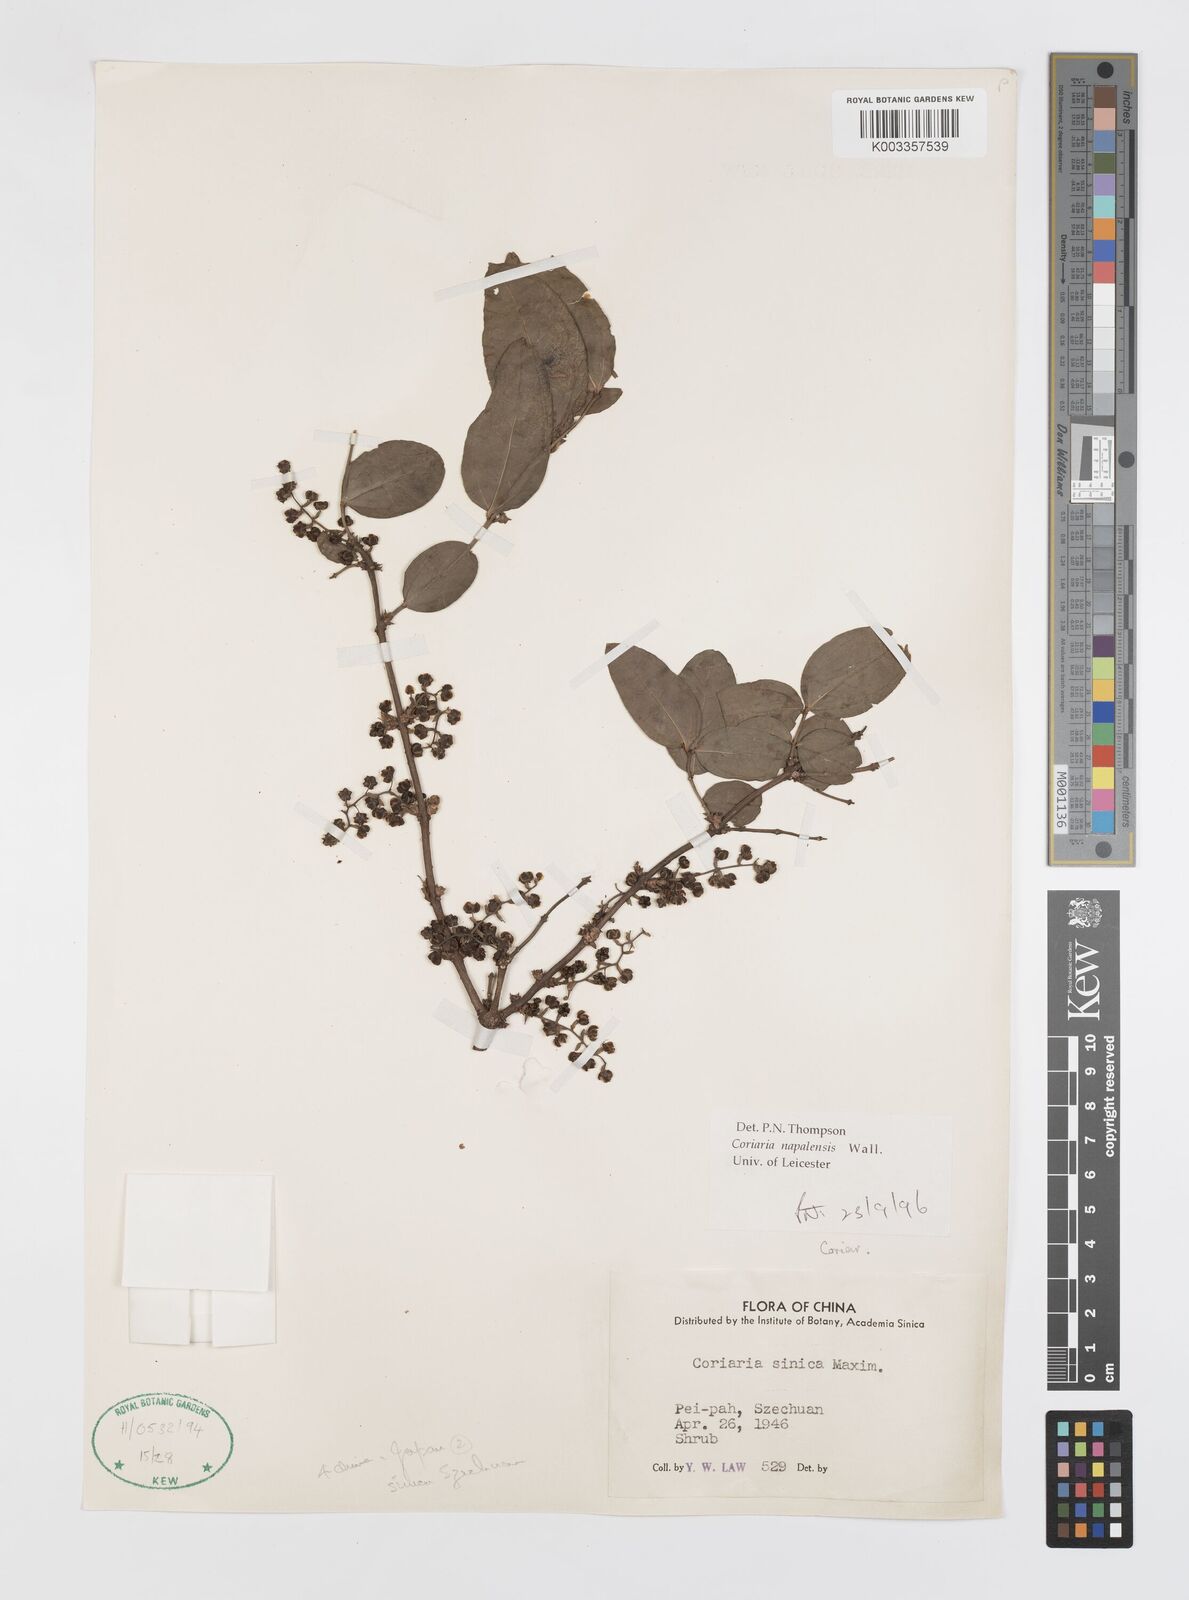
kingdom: Plantae
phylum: Tracheophyta
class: Magnoliopsida
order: Cucurbitales
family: Coriariaceae
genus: Coriaria
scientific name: Coriaria napalensis
